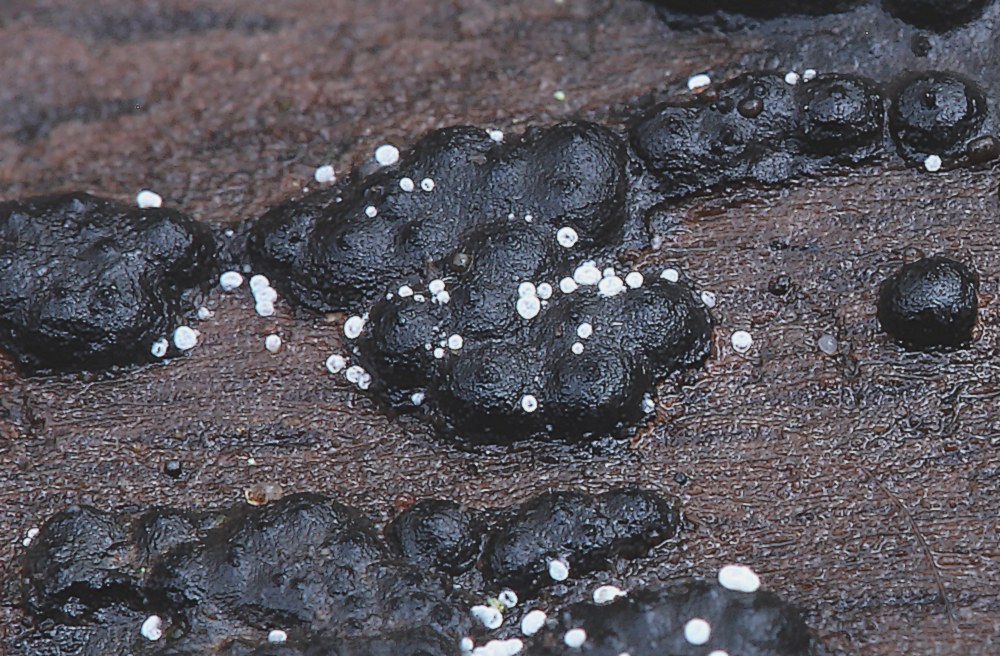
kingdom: Fungi
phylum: Ascomycota
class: Leotiomycetes
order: Helotiales
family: Hyaloscyphaceae
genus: Polydesmia
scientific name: Polydesmia pruinosa
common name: dunskive
